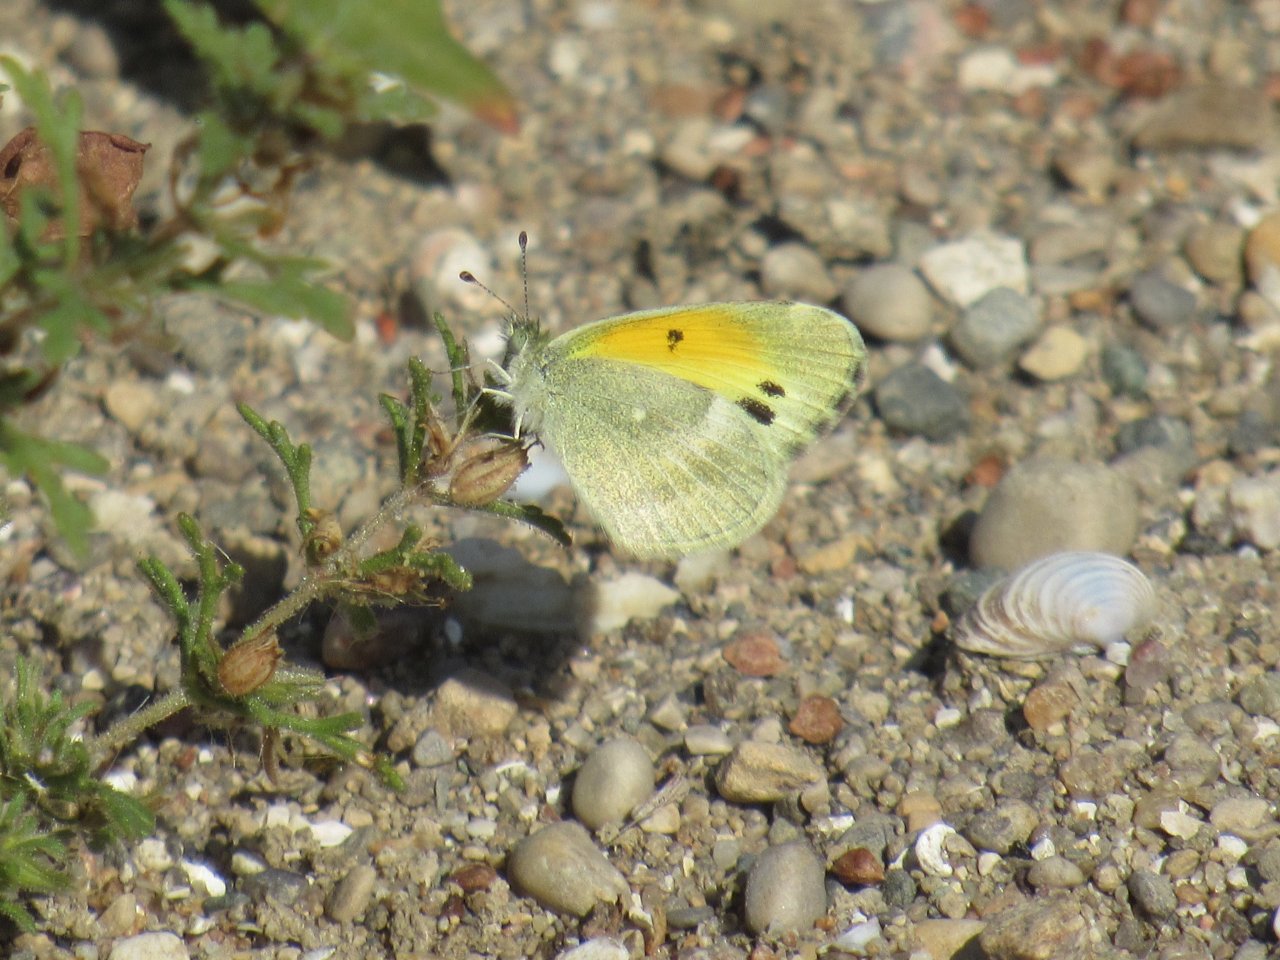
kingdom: Animalia
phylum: Arthropoda
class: Insecta
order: Lepidoptera
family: Pieridae
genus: Nathalis
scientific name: Nathalis iole
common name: Dainty Sulphur
